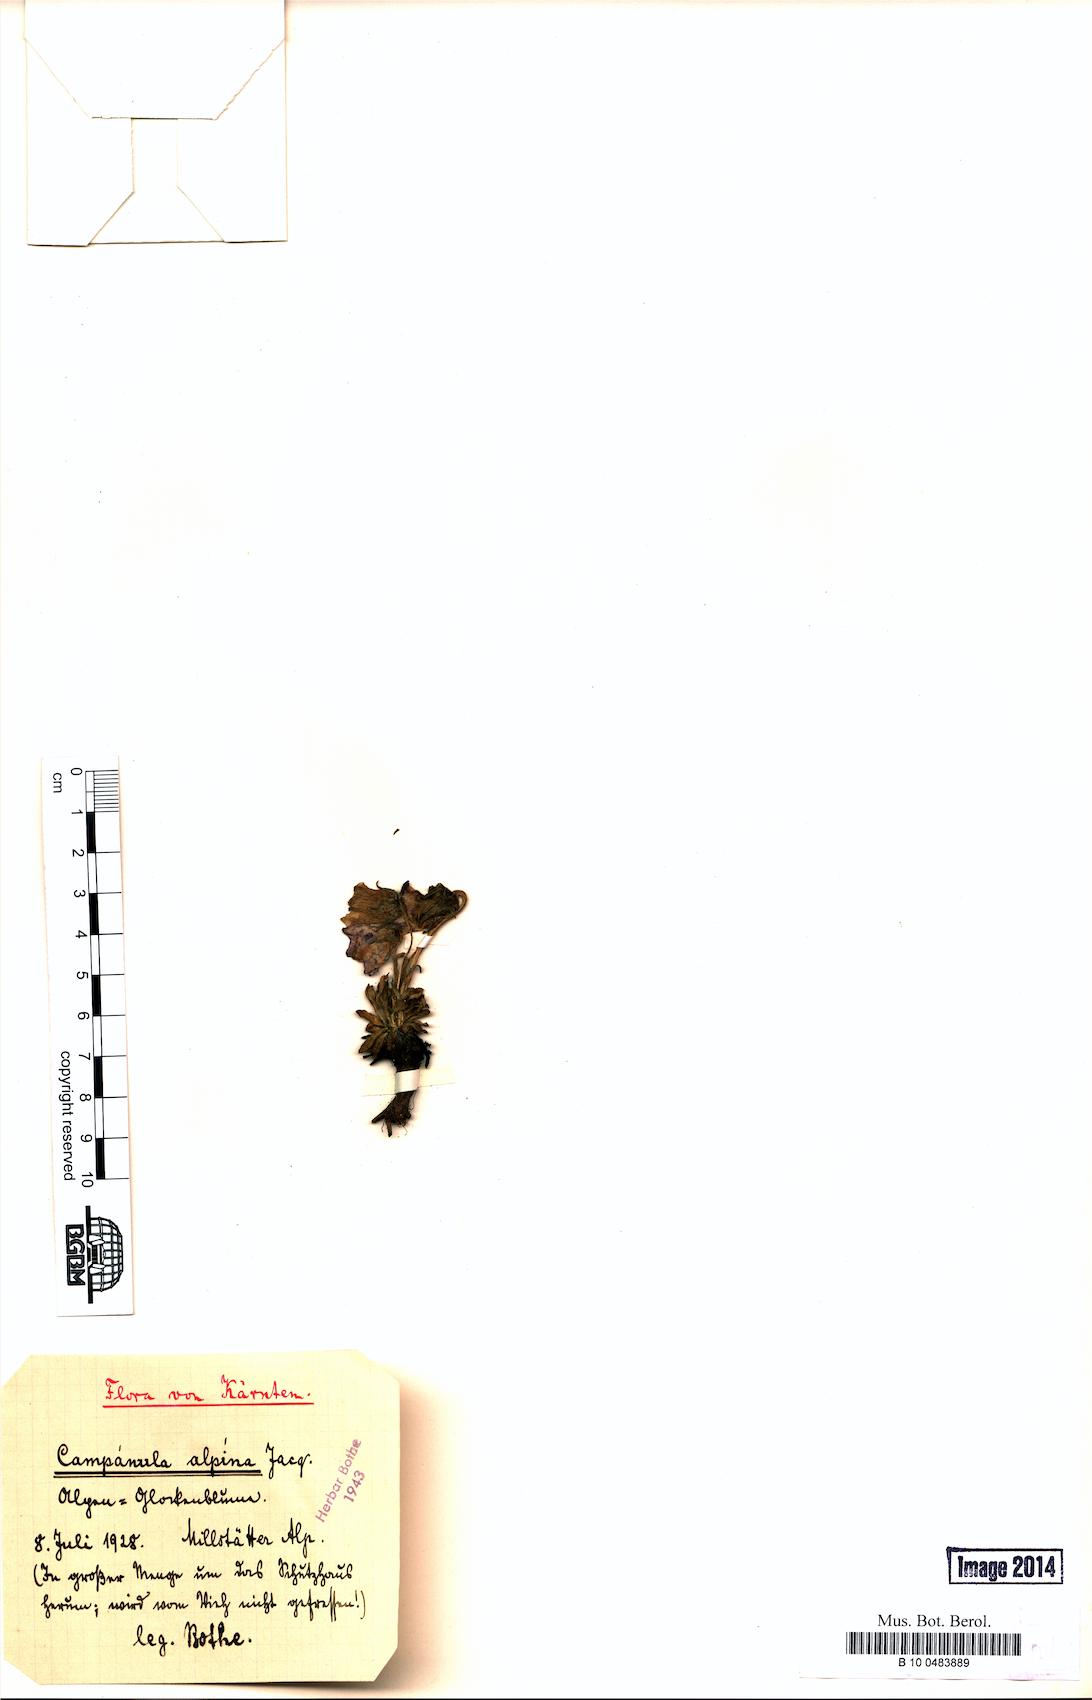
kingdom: Plantae
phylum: Tracheophyta
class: Magnoliopsida
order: Asterales
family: Campanulaceae
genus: Campanula
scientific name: Campanula alpina
